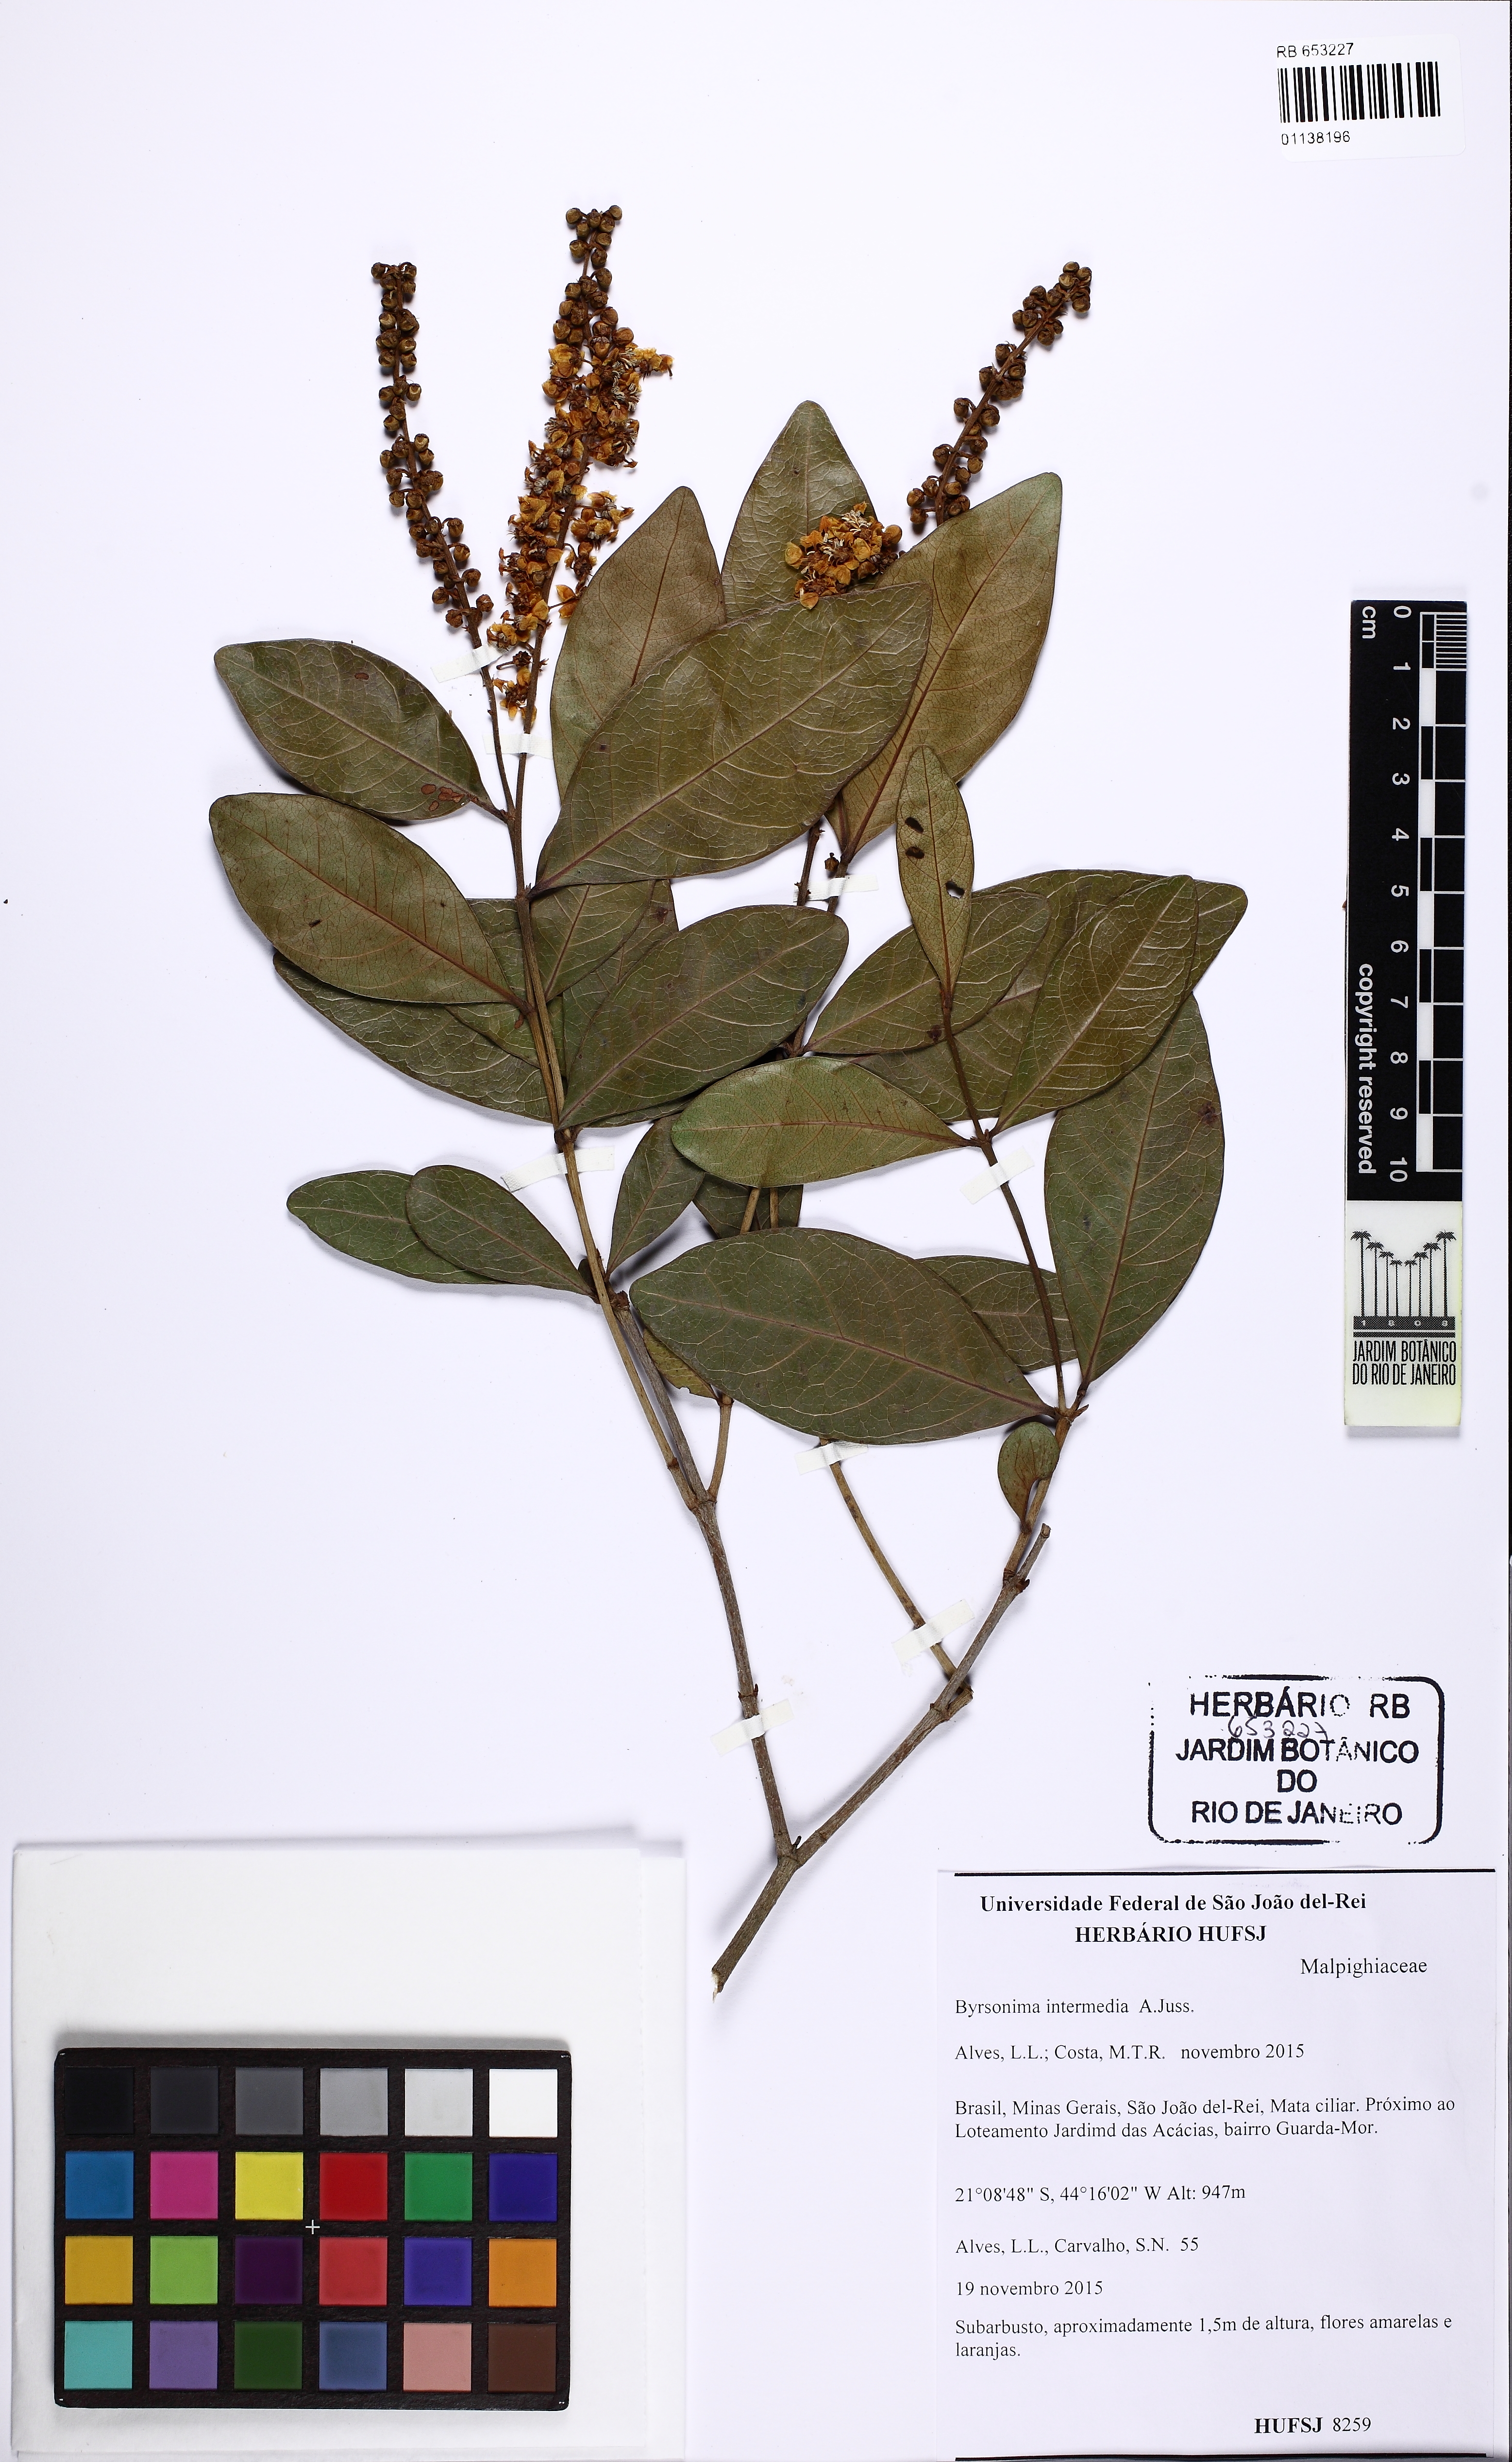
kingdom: Plantae
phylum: Tracheophyta
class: Magnoliopsida
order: Malpighiales
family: Malpighiaceae
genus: Byrsonima
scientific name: Byrsonima intermedia
